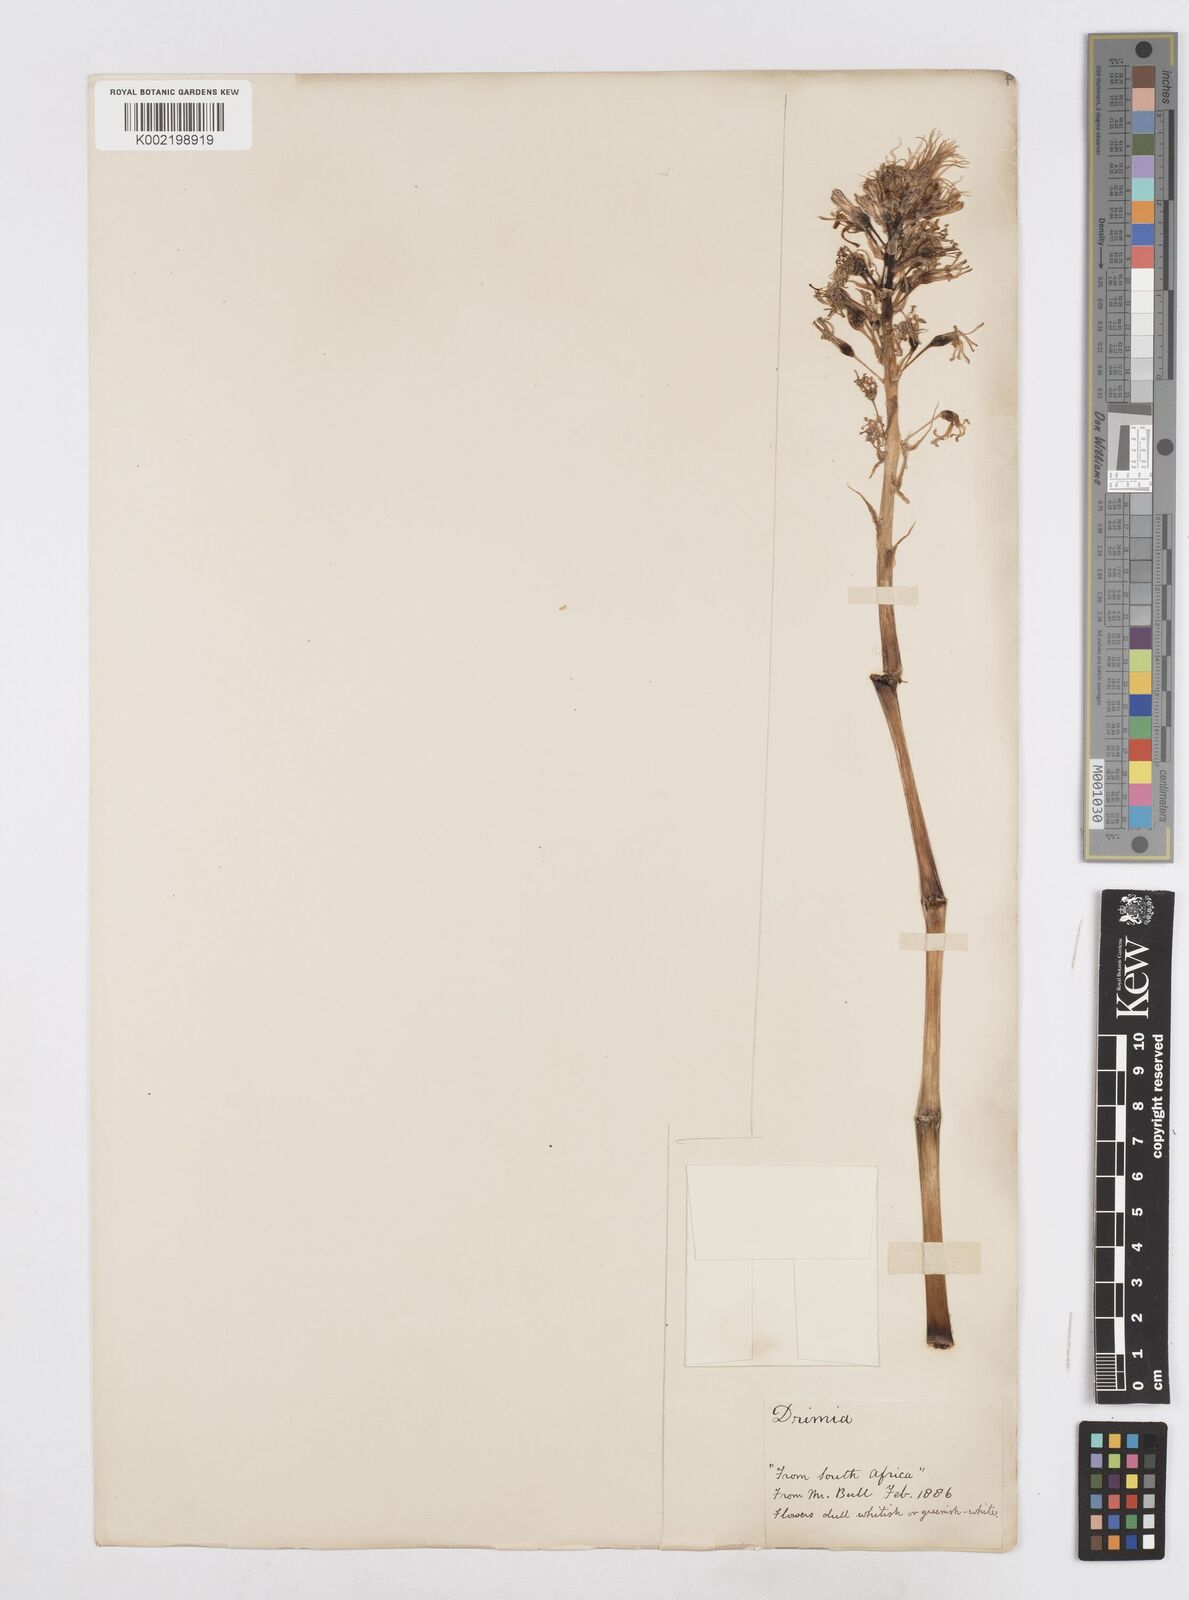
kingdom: Plantae
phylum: Tracheophyta
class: Liliopsida
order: Asparagales
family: Asparagaceae
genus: Drimia
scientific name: Drimia elata
